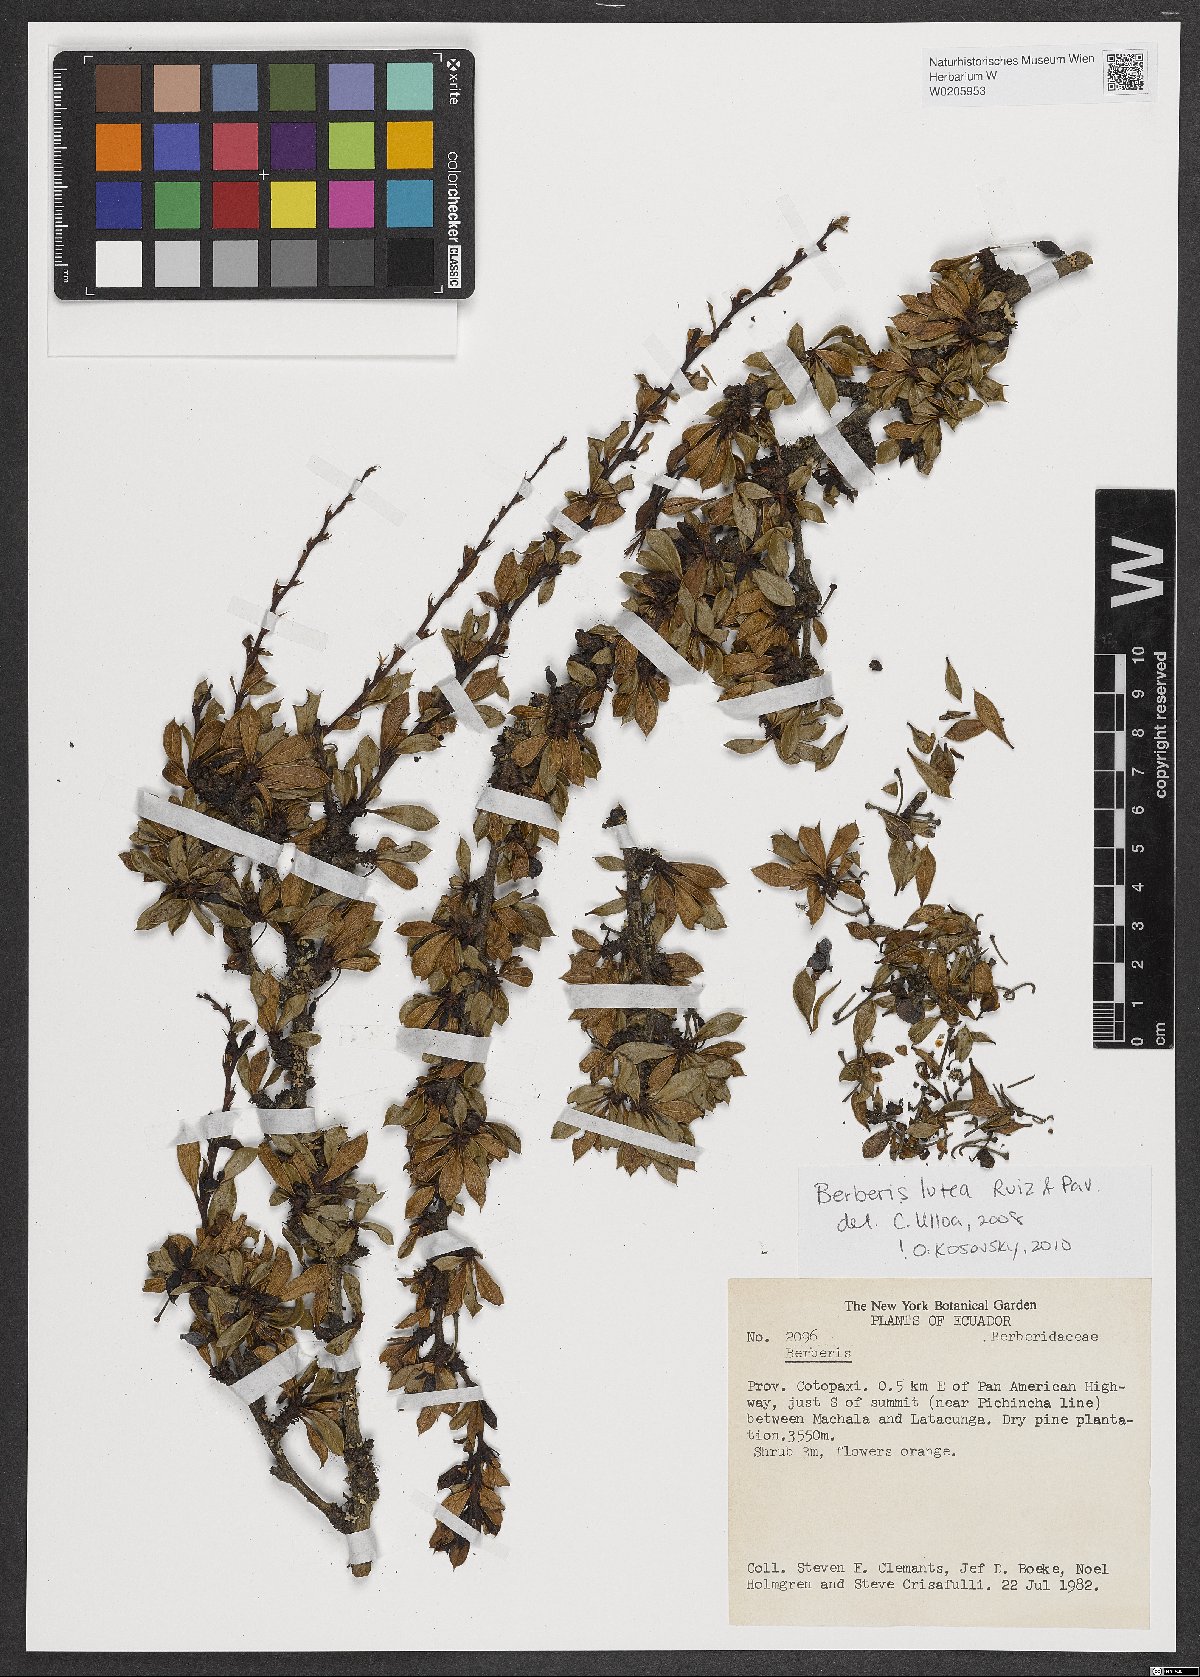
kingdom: Plantae
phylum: Tracheophyta
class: Magnoliopsida
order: Ranunculales
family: Berberidaceae
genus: Berberis
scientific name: Berberis lutea
